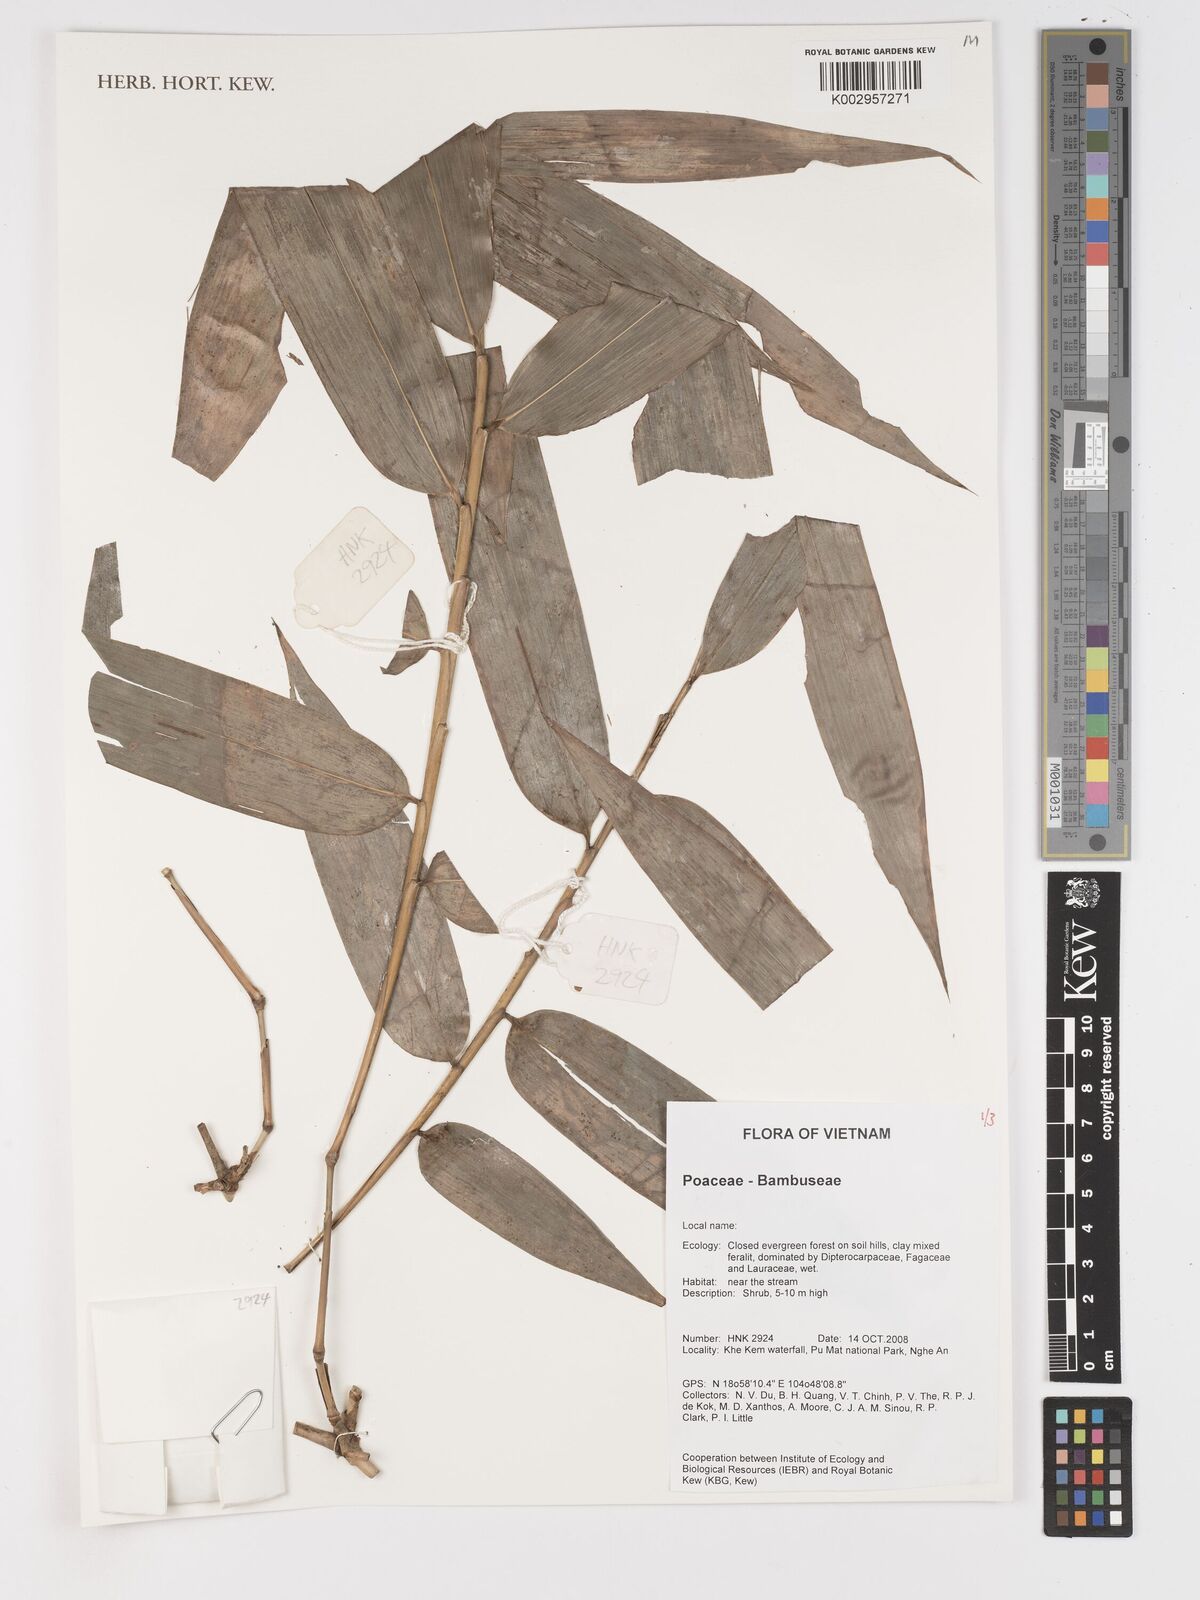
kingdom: Plantae
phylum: Tracheophyta
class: Liliopsida
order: Poales
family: Poaceae
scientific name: Poaceae
